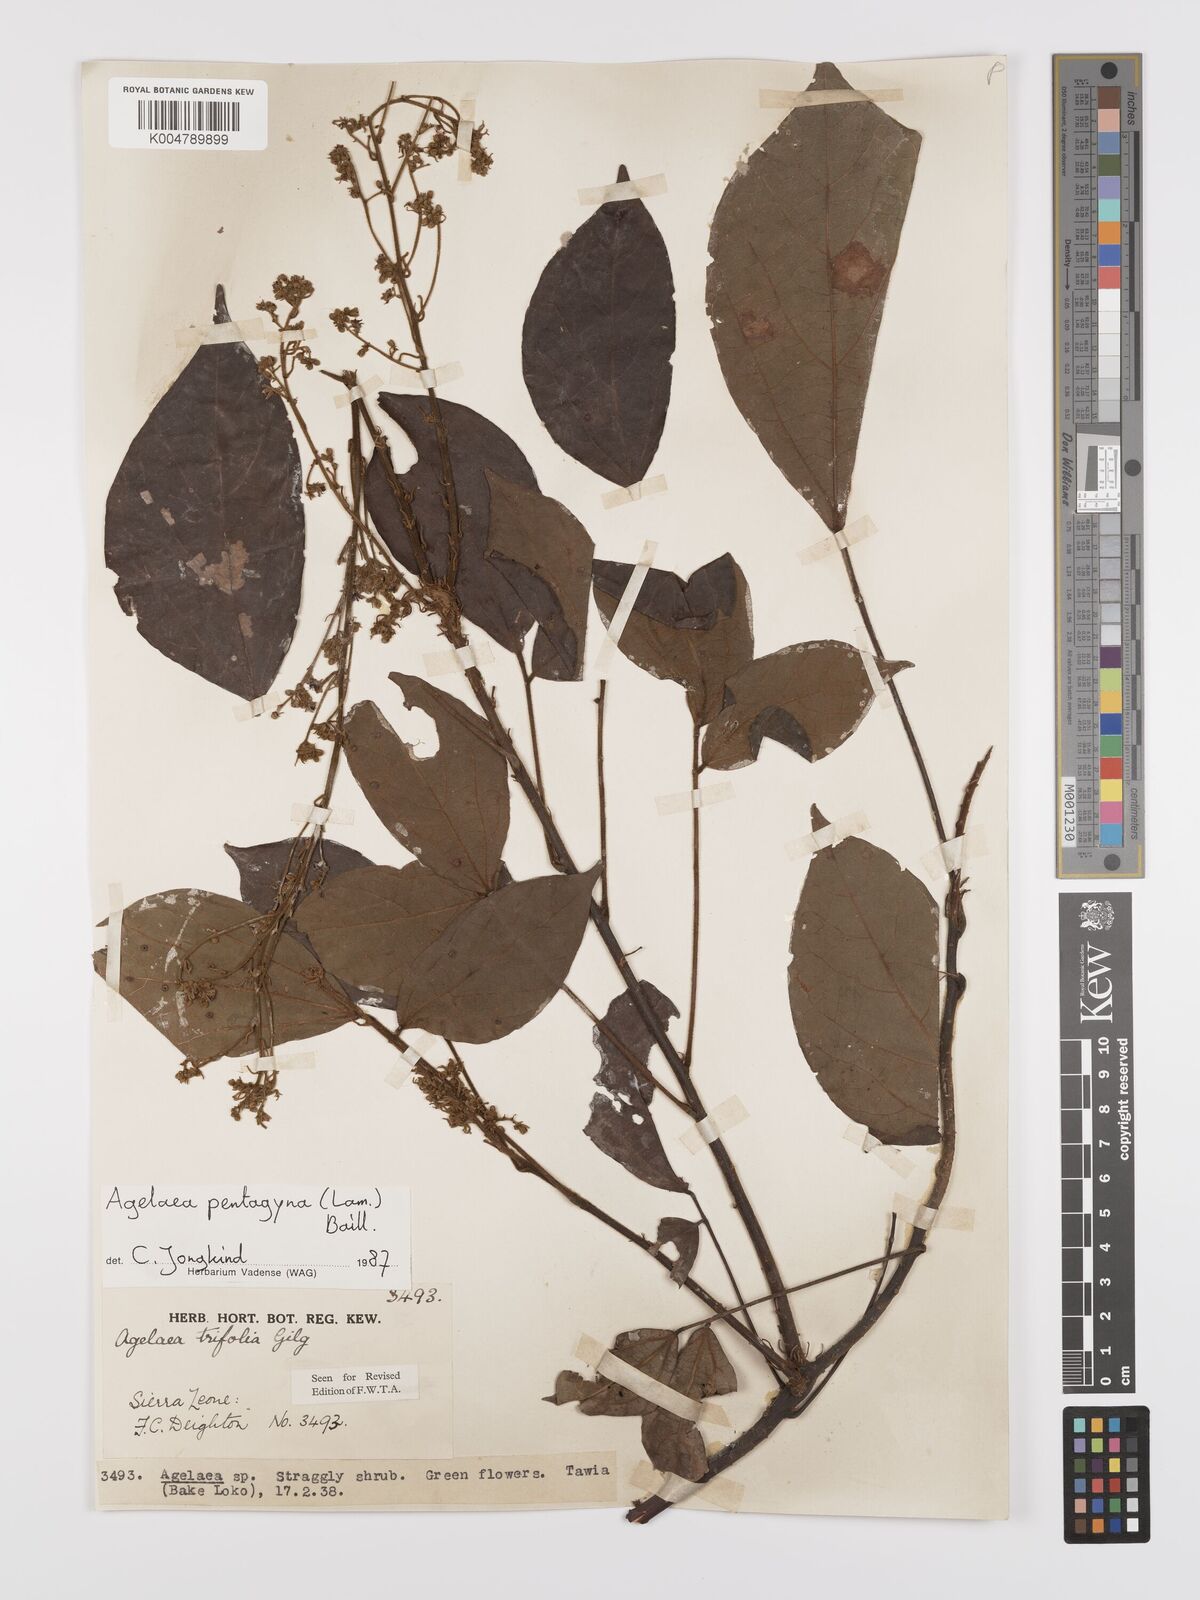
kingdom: Plantae
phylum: Tracheophyta
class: Magnoliopsida
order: Oxalidales
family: Connaraceae
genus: Agelaea
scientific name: Agelaea pentagyna
